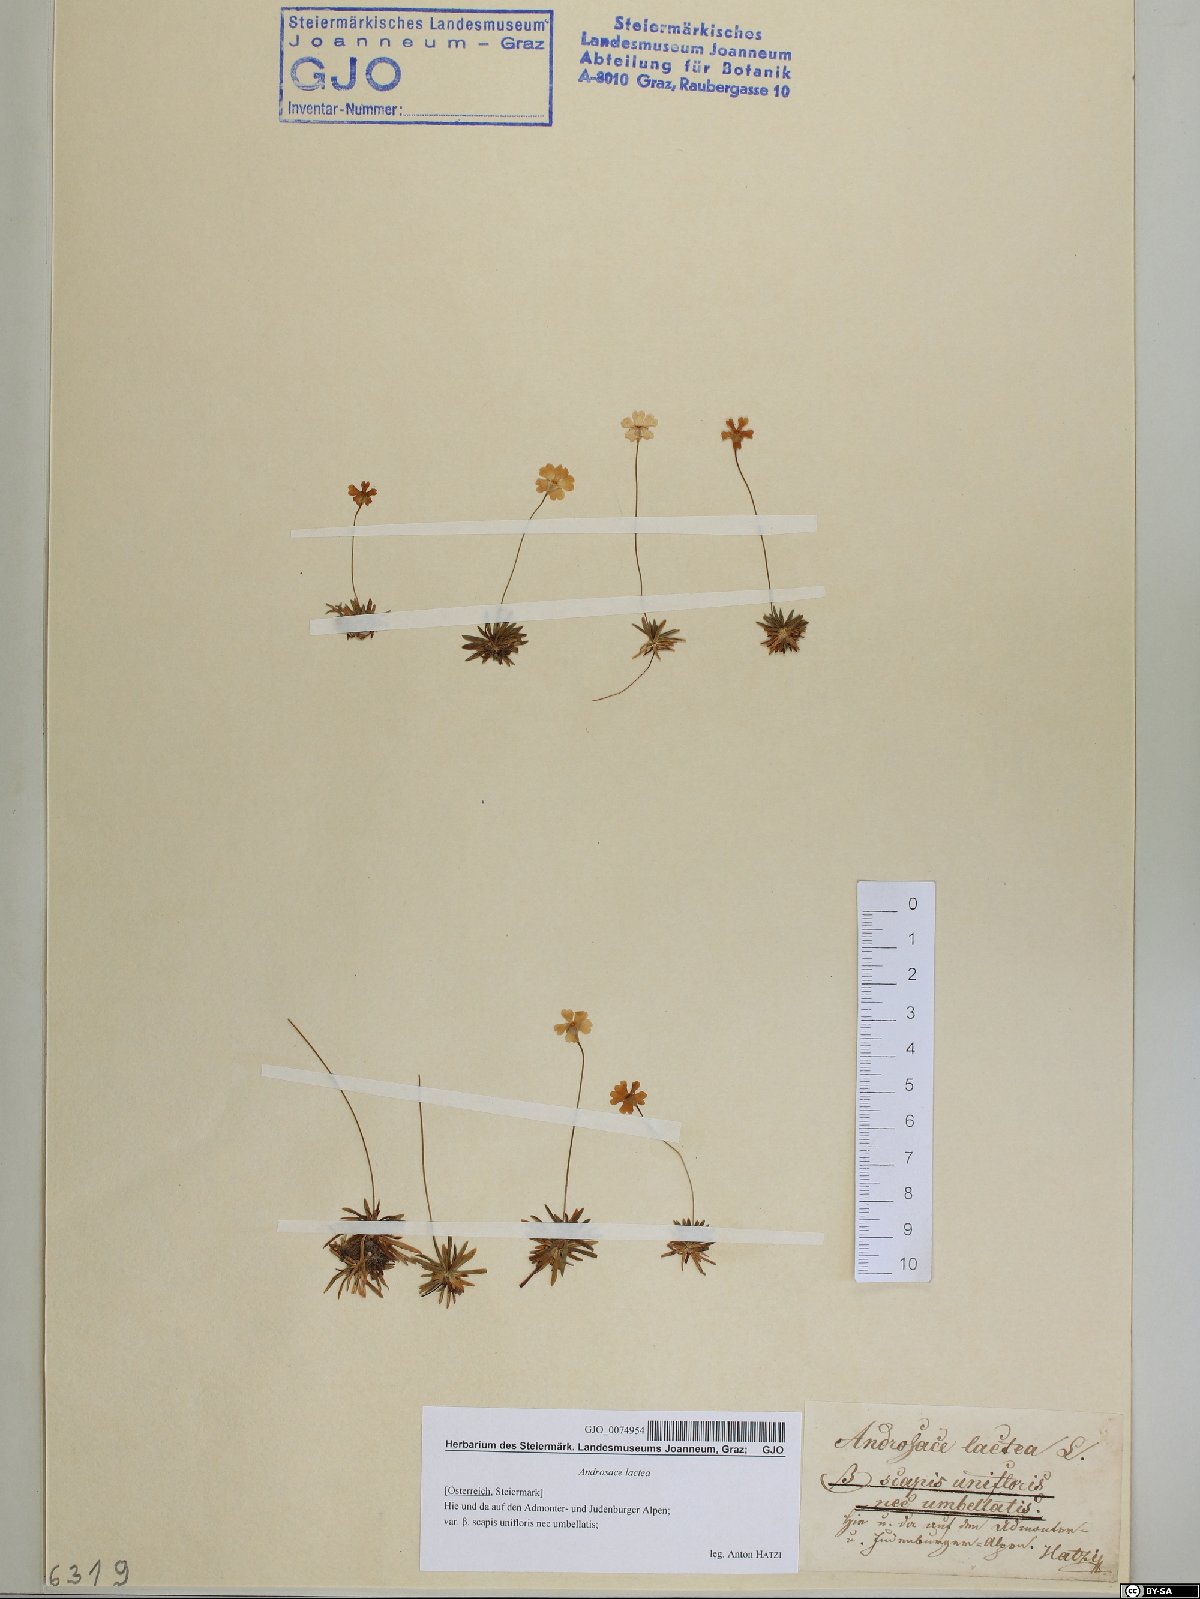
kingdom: Plantae
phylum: Tracheophyta
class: Magnoliopsida
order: Ericales
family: Primulaceae
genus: Androsace
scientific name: Androsace lactea
